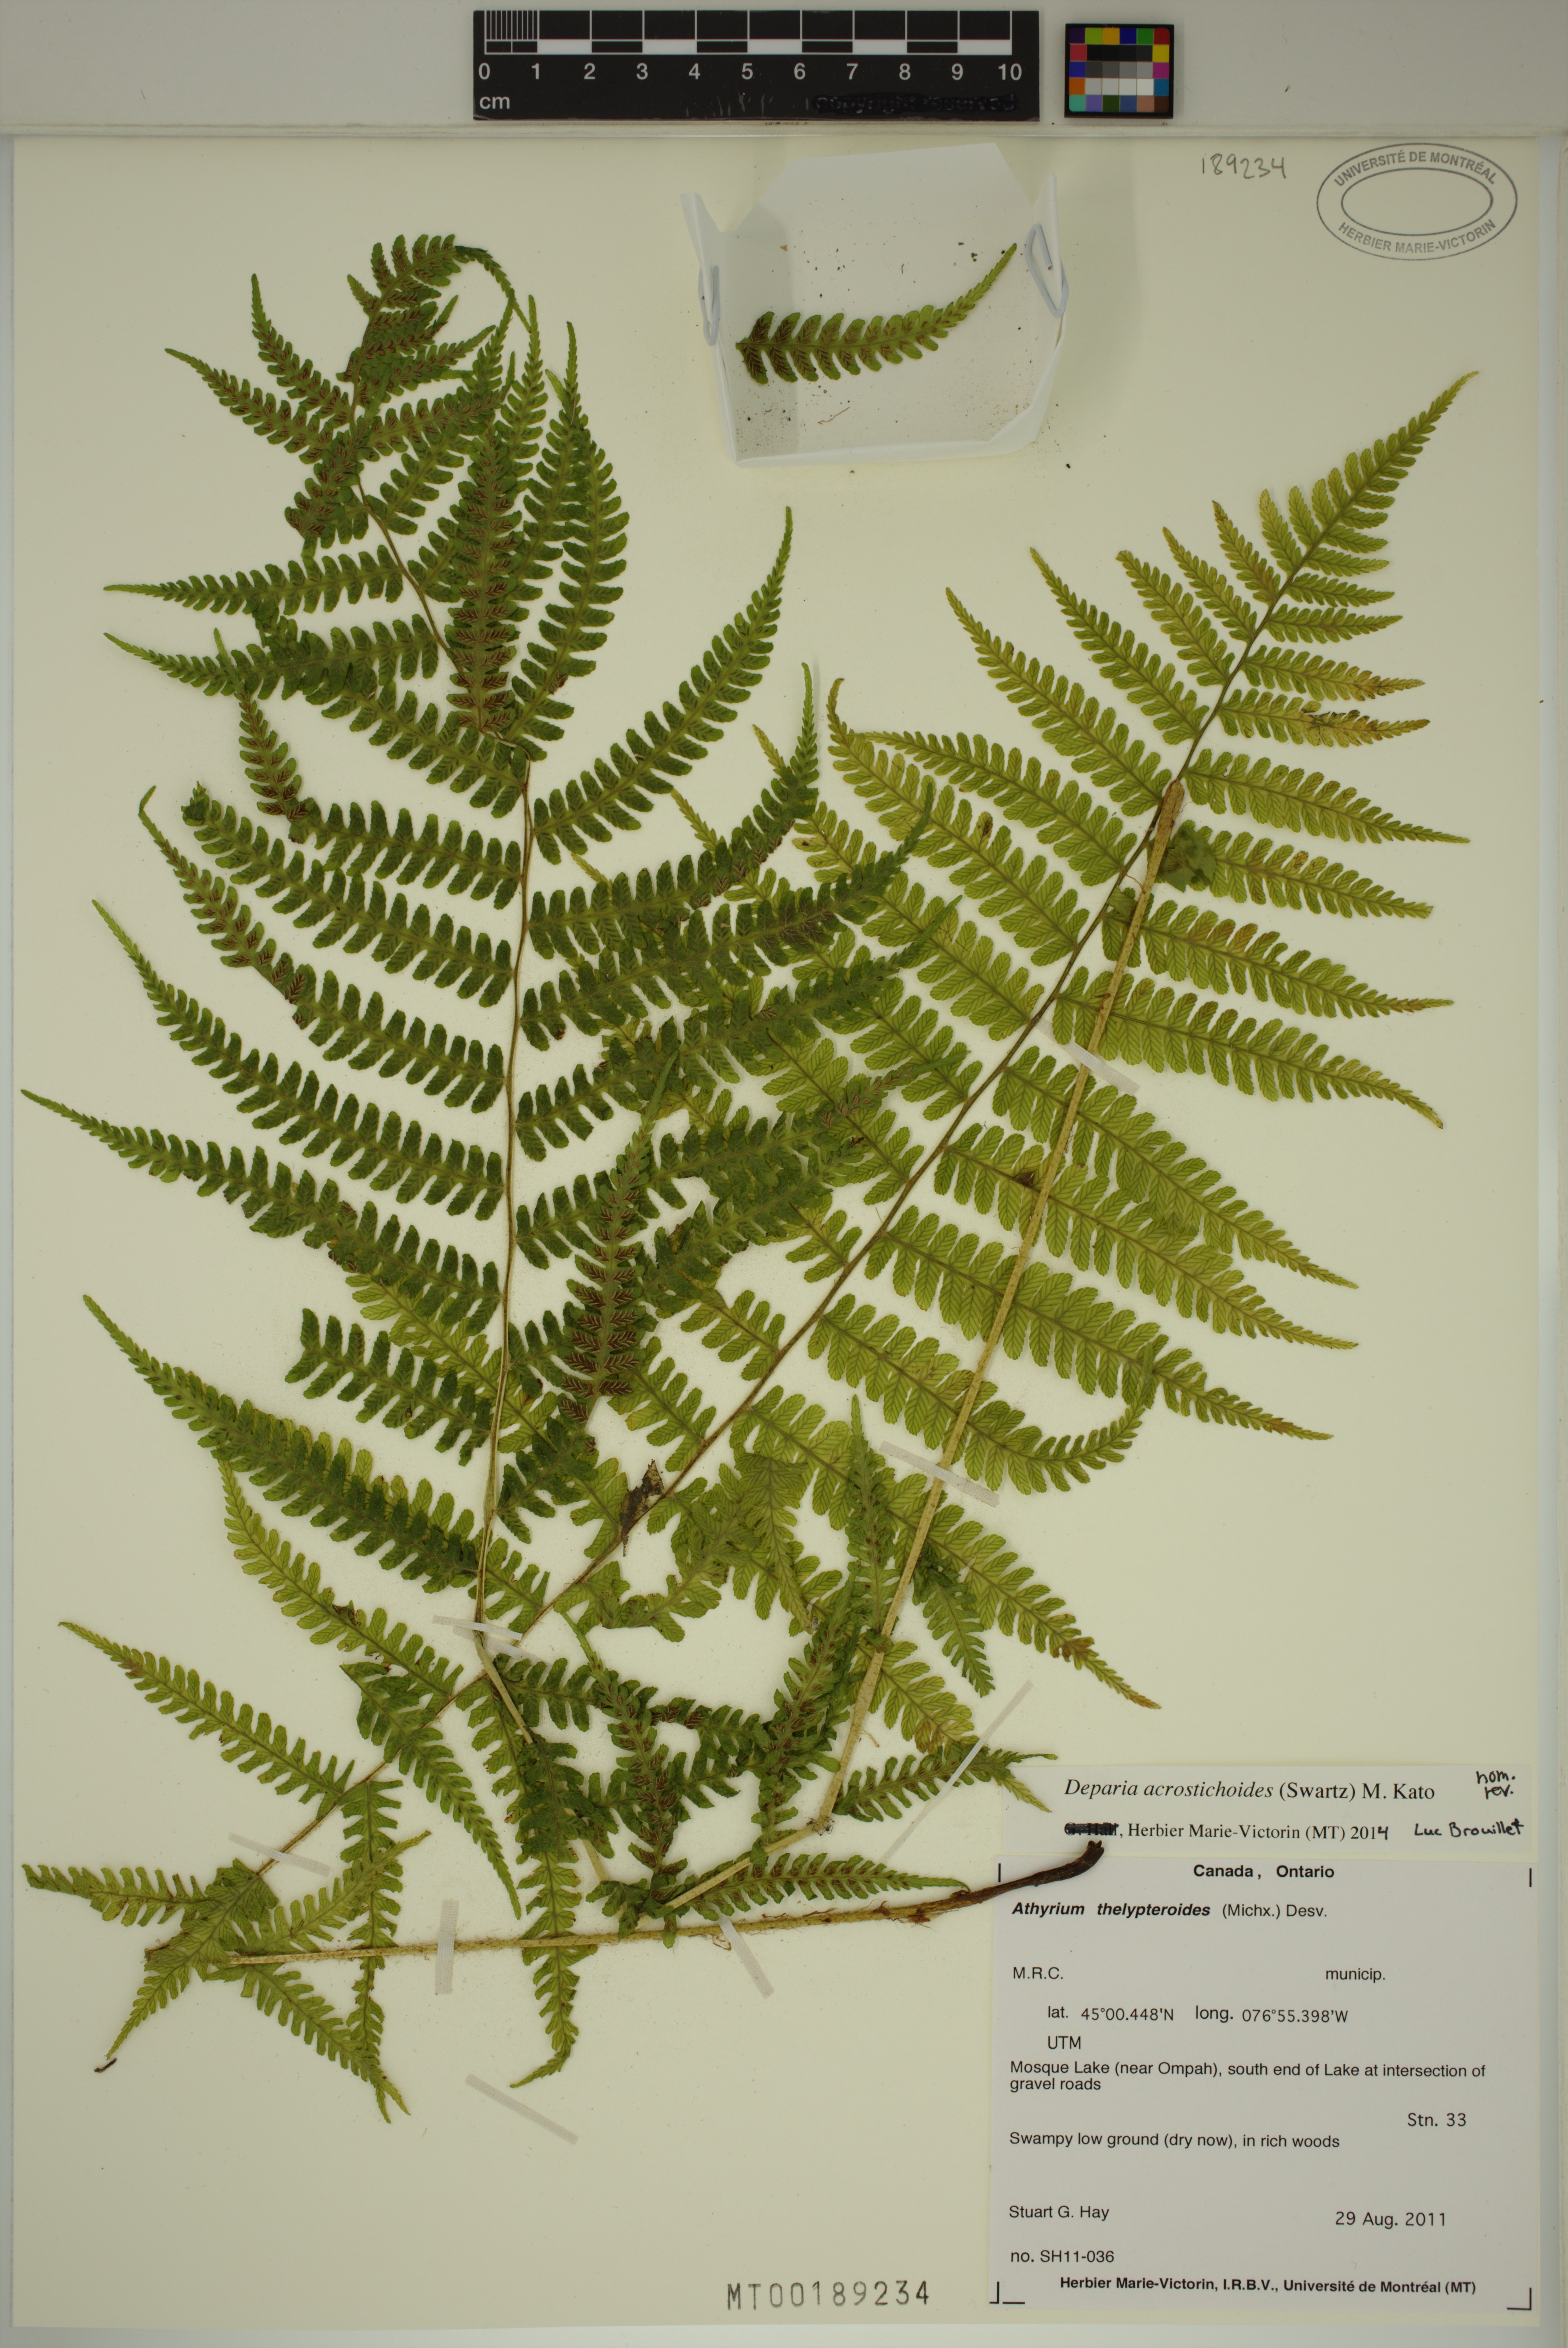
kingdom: Plantae
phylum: Tracheophyta
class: Polypodiopsida
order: Polypodiales
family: Athyriaceae
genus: Deparia
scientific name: Deparia acrostichoides
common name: Silver false spleenwort
